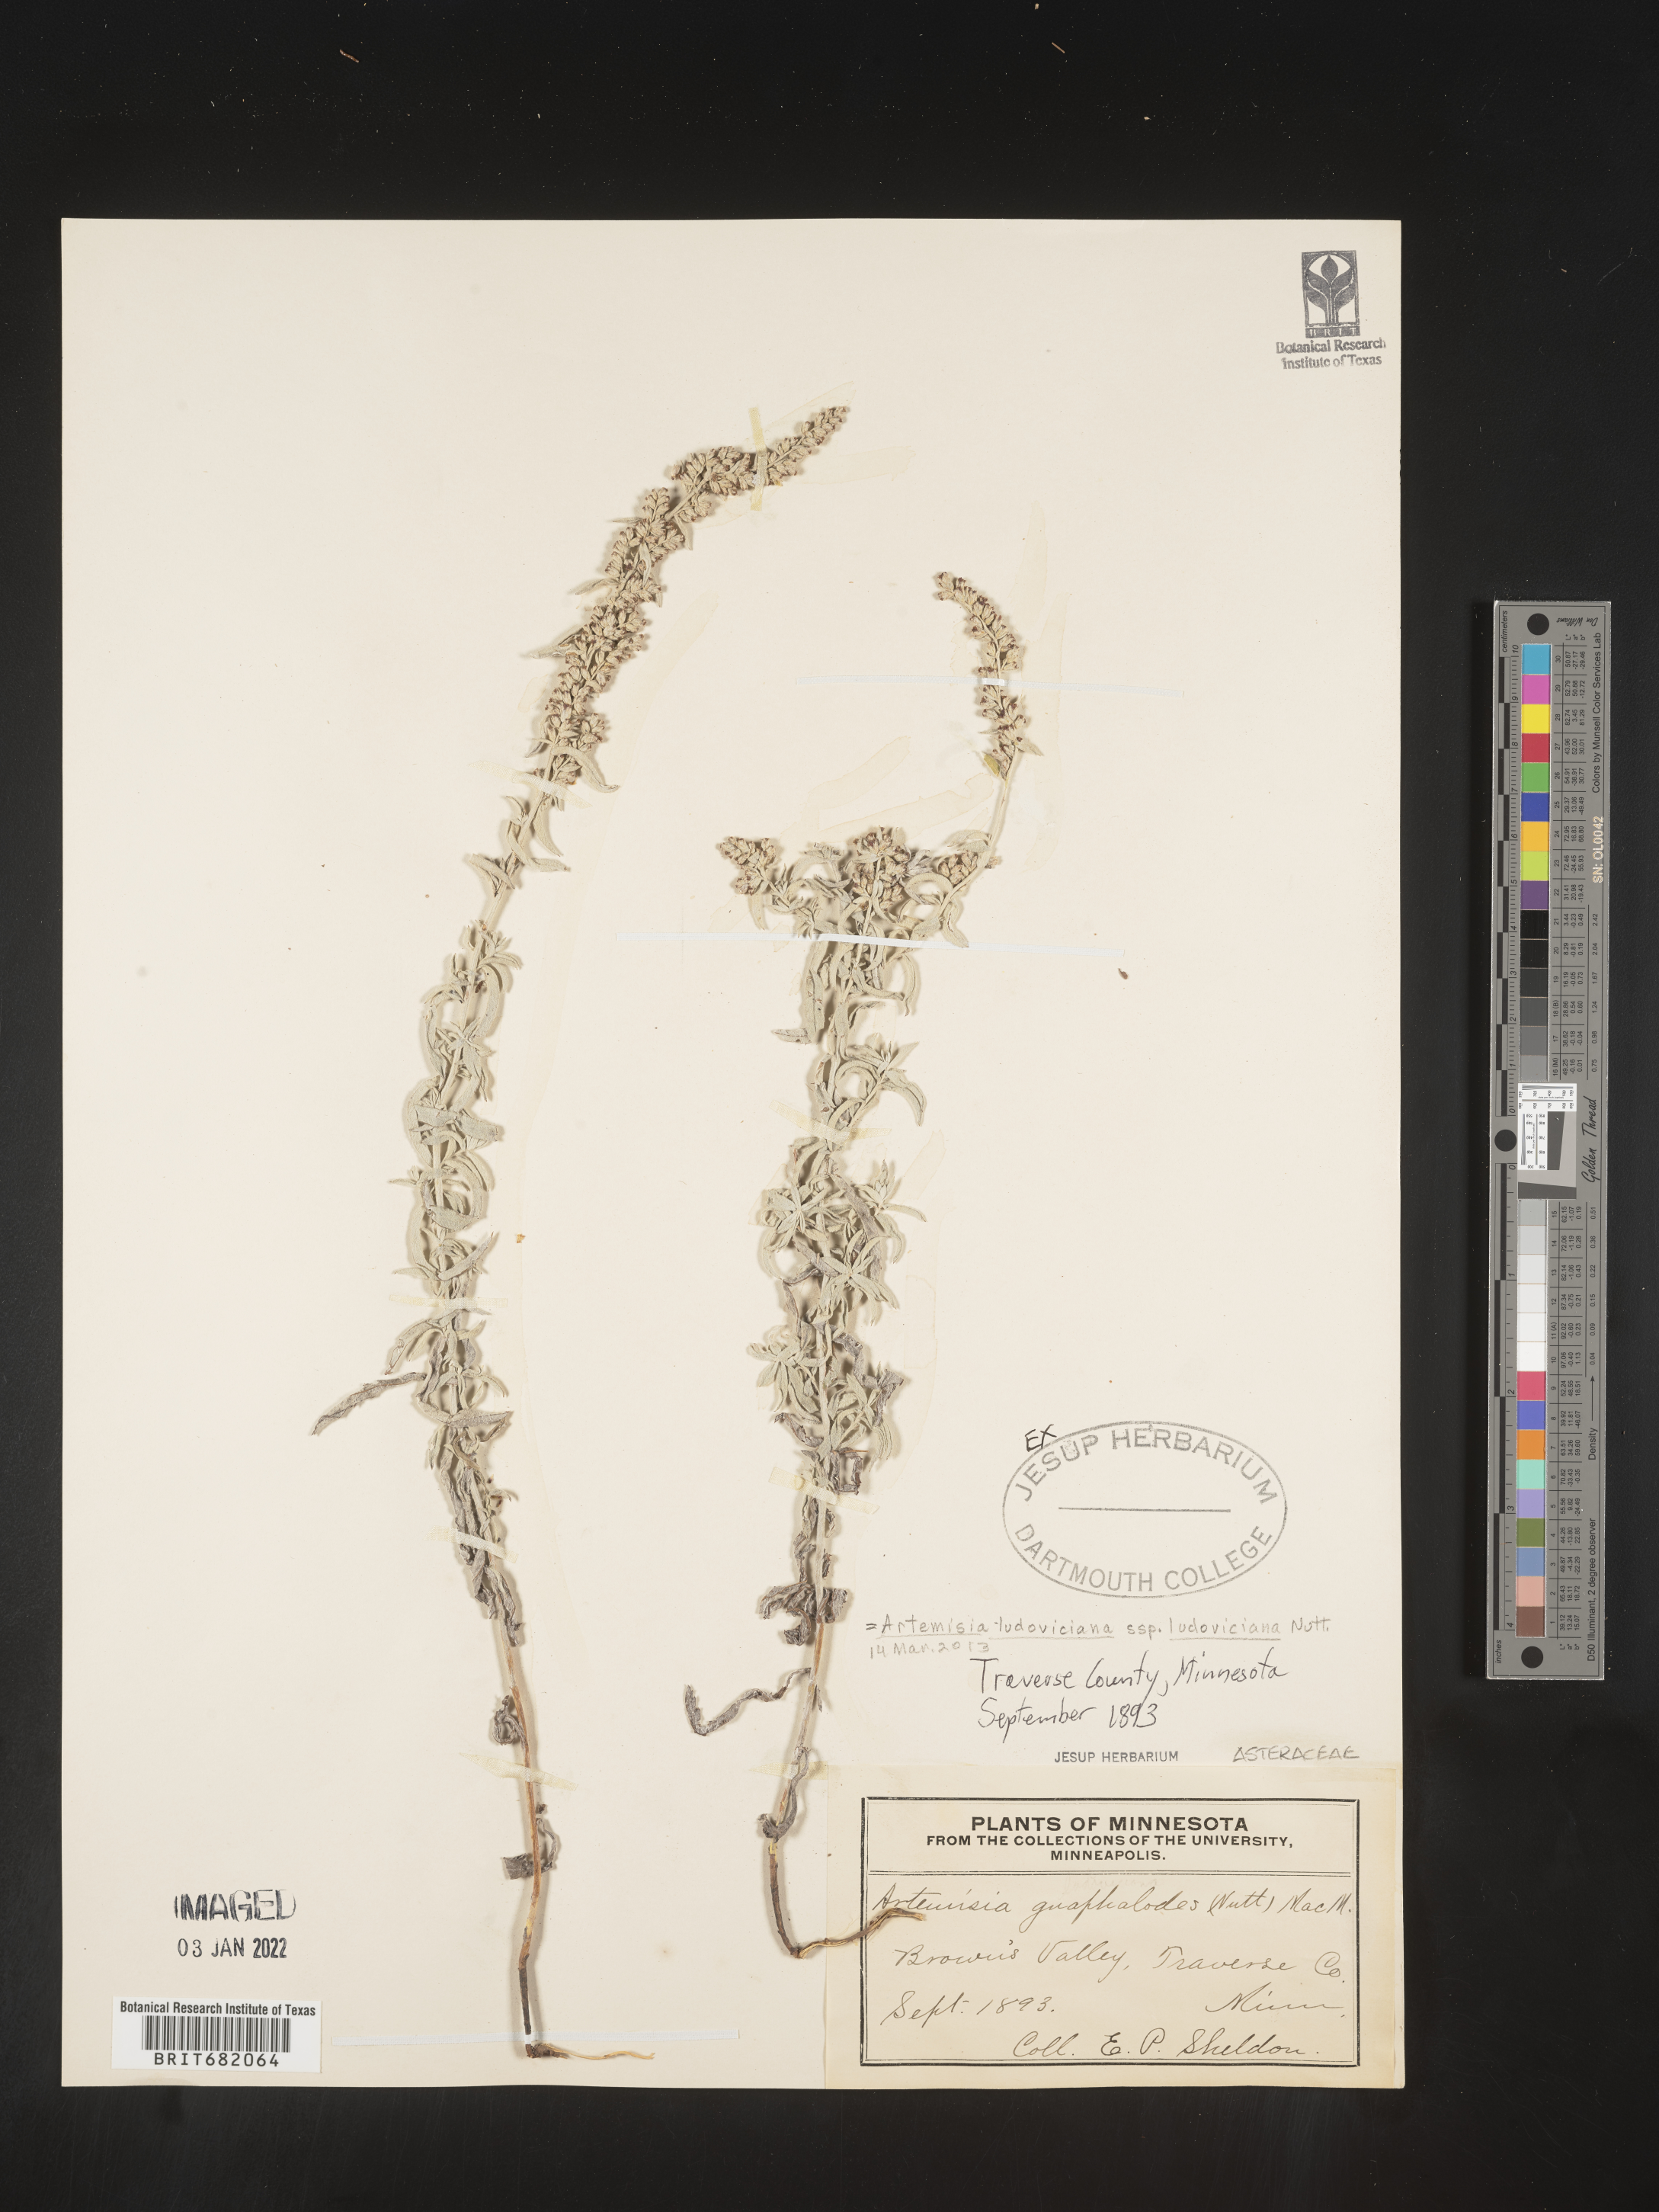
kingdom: Plantae
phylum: Tracheophyta
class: Magnoliopsida
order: Asterales
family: Asteraceae
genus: Artemisia
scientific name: Artemisia ludoviciana
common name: Western mugwort
